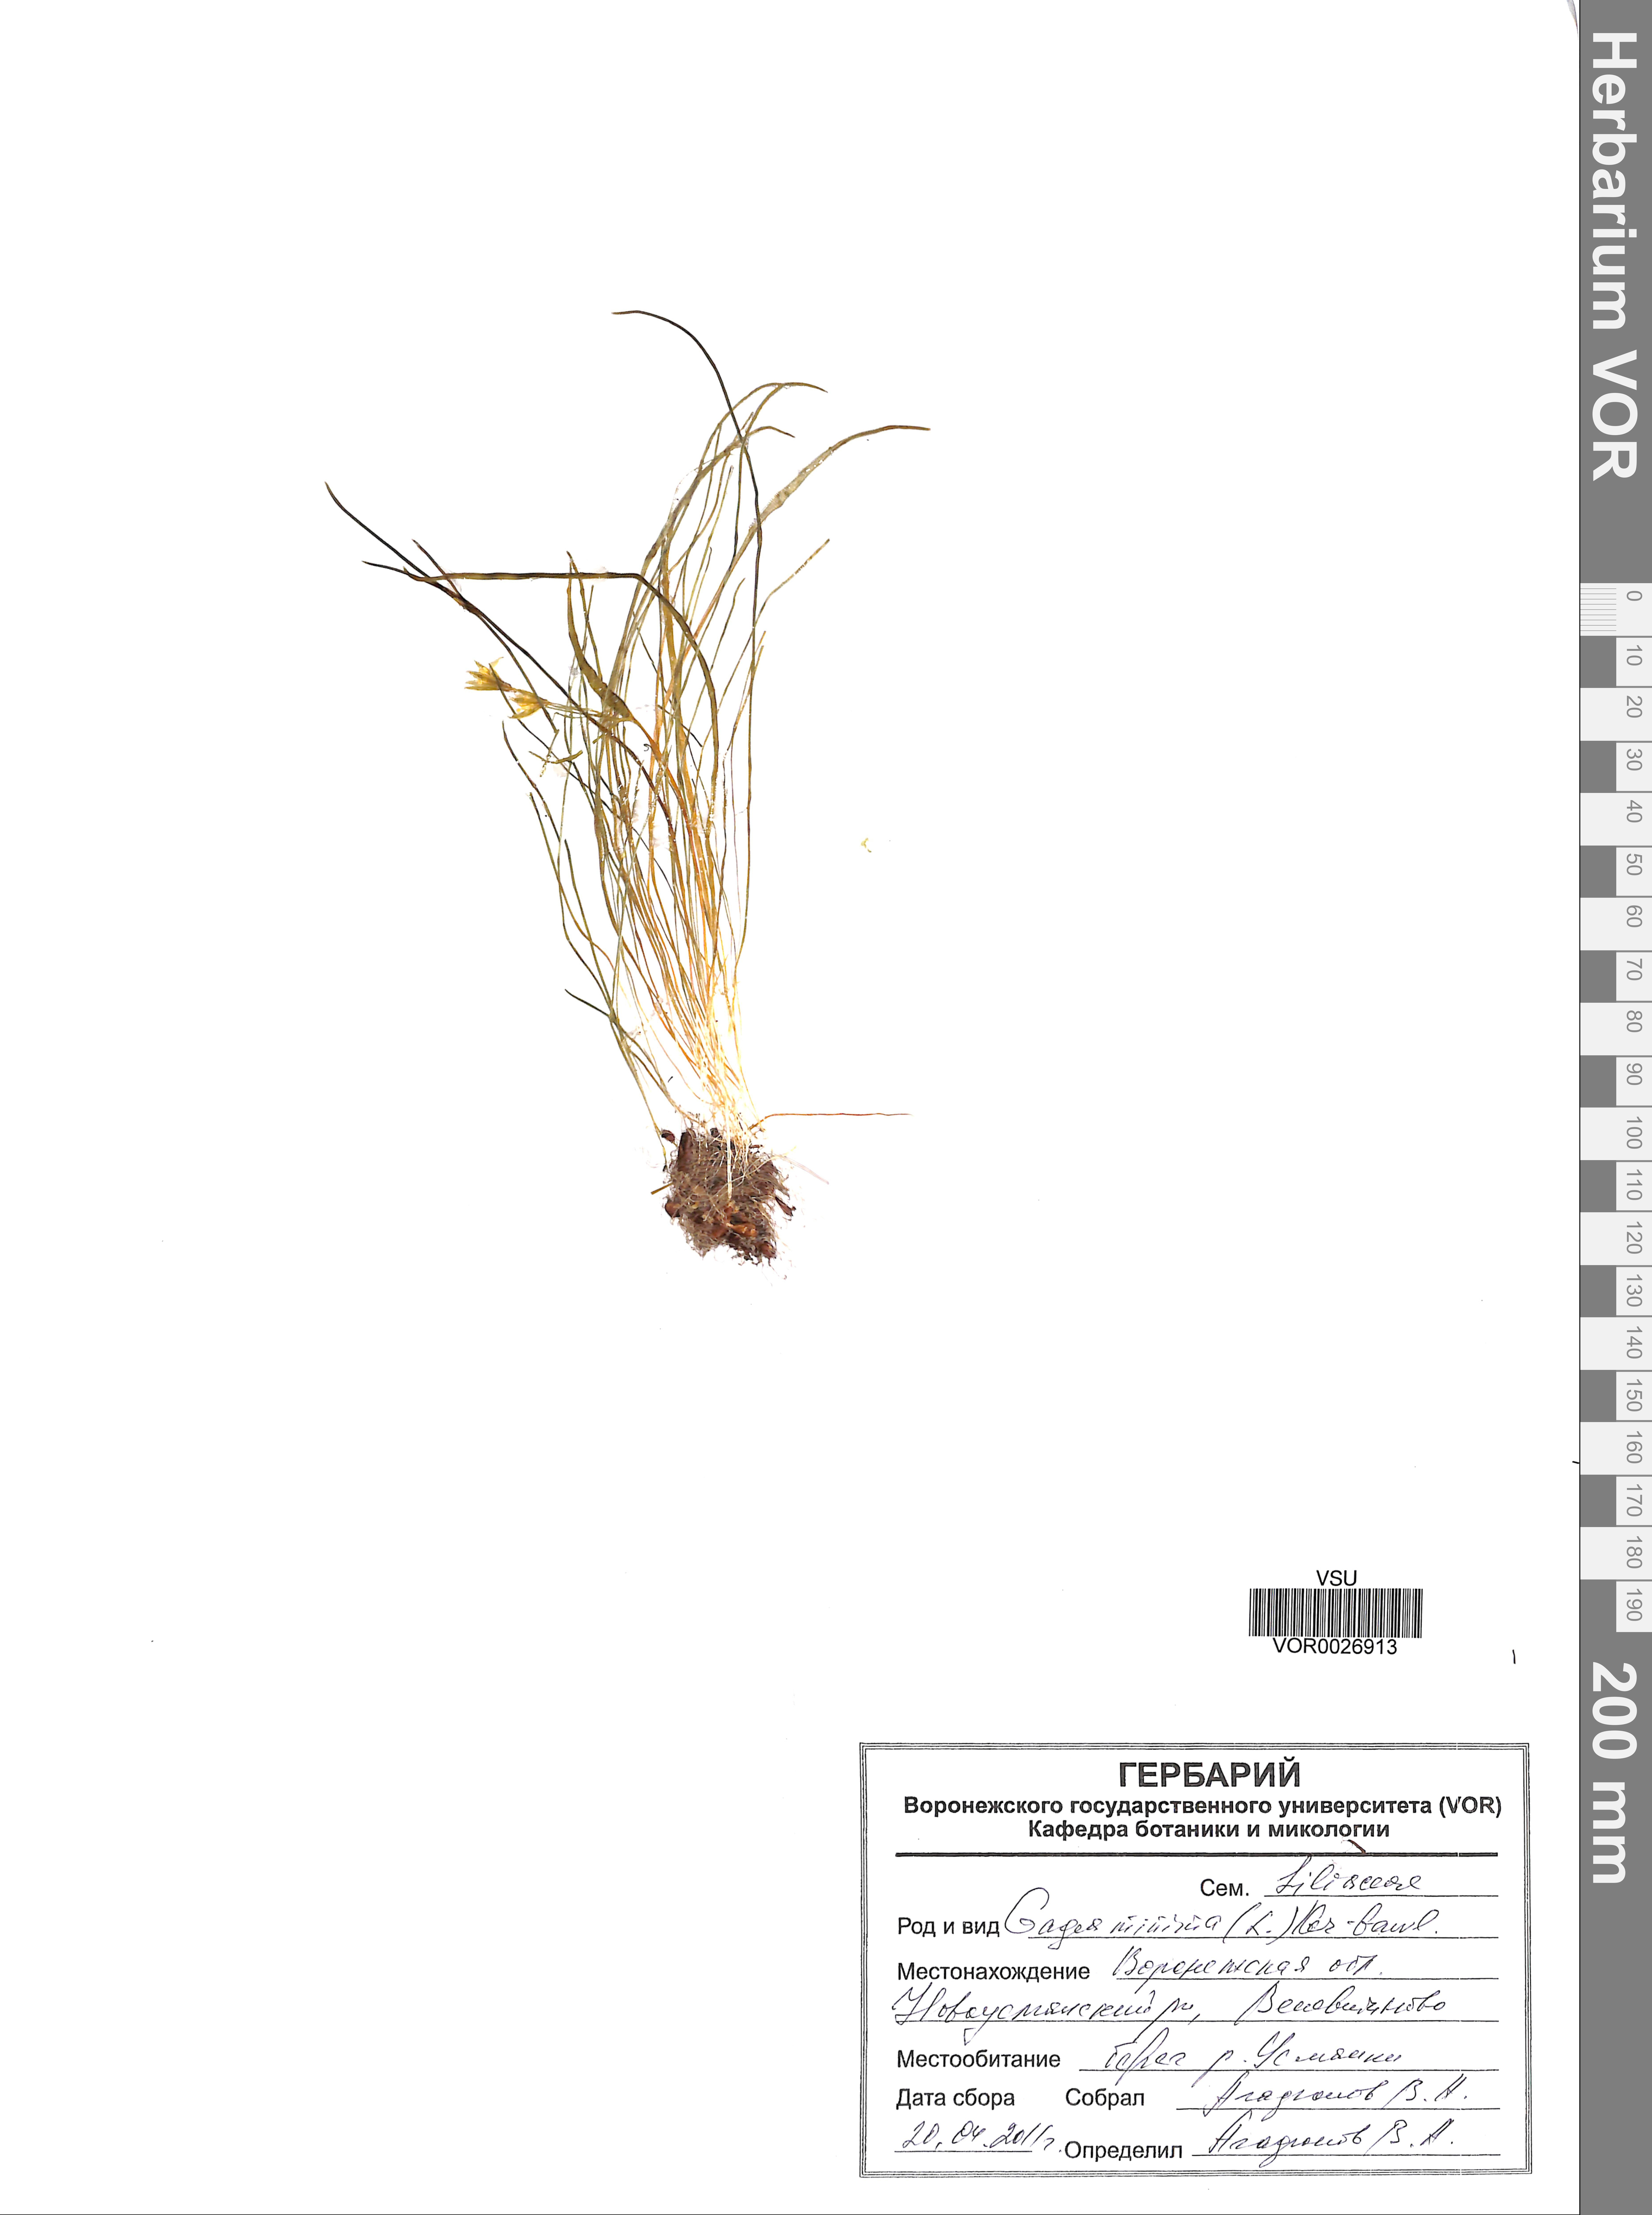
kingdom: Plantae
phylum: Tracheophyta
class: Liliopsida
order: Liliales
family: Liliaceae
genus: Gagea
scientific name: Gagea minima
